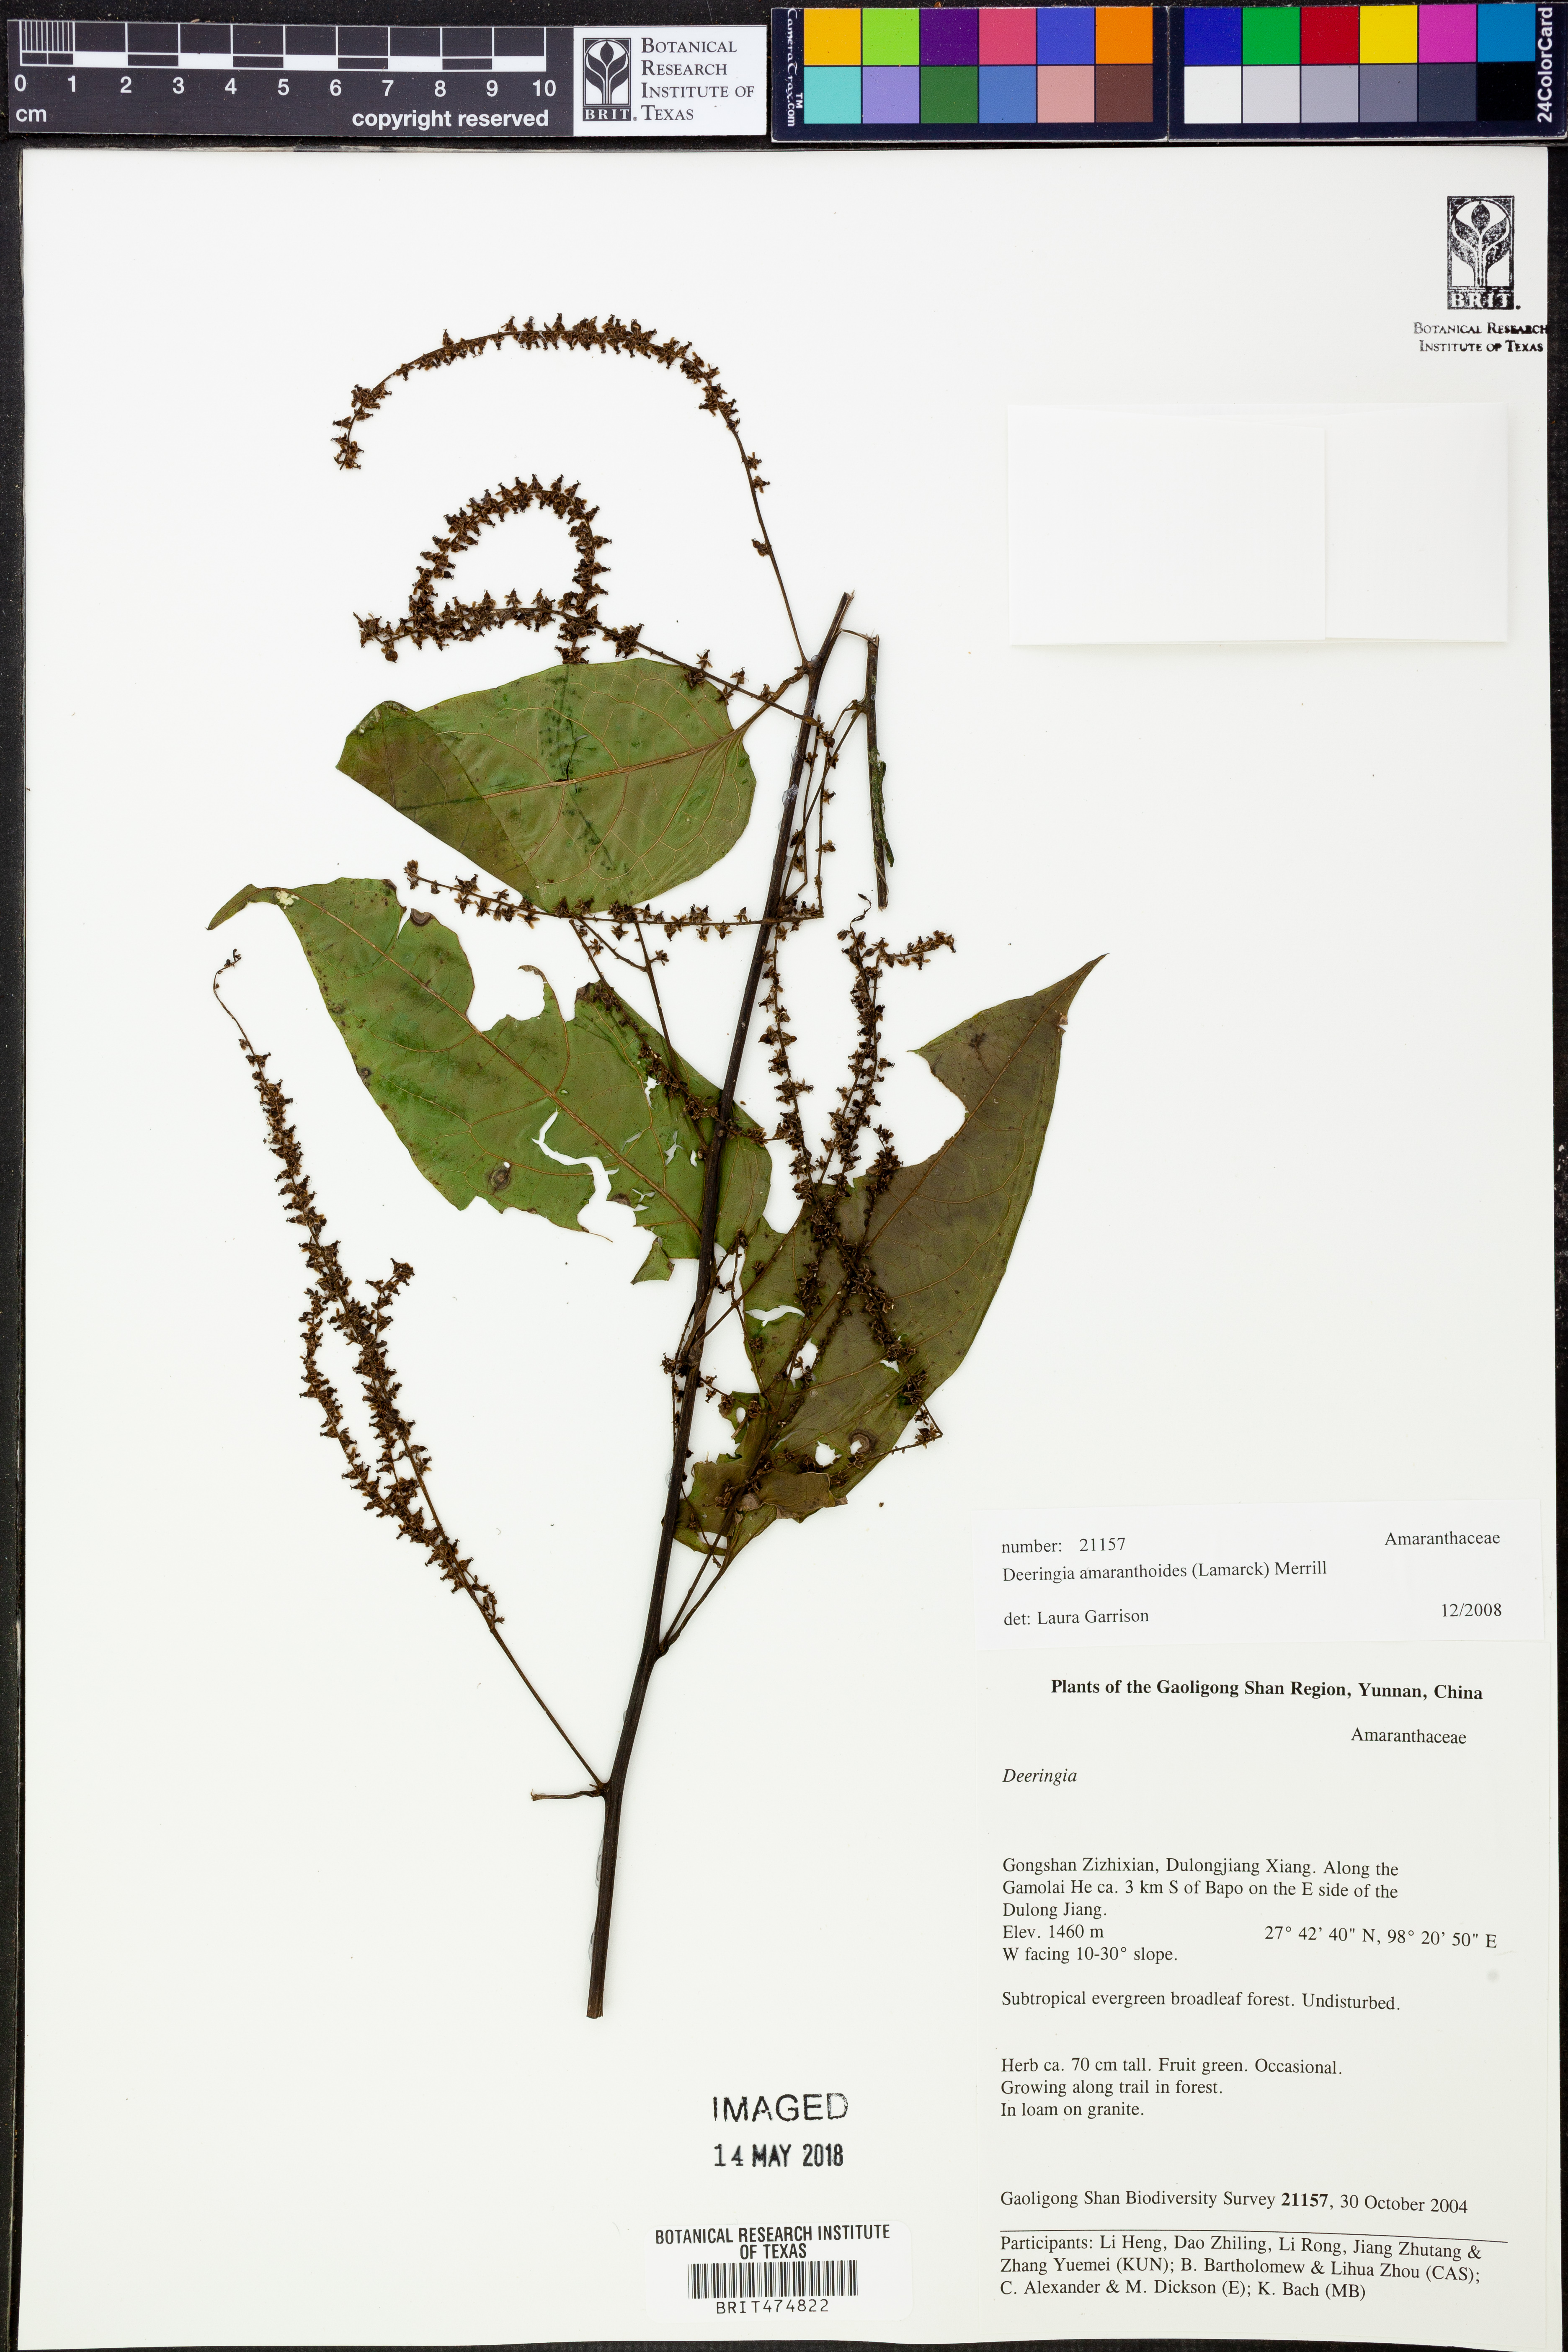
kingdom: Plantae
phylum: Tracheophyta
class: Magnoliopsida
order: Caryophyllales
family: Amaranthaceae
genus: Deeringia
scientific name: Deeringia amaranthoides
